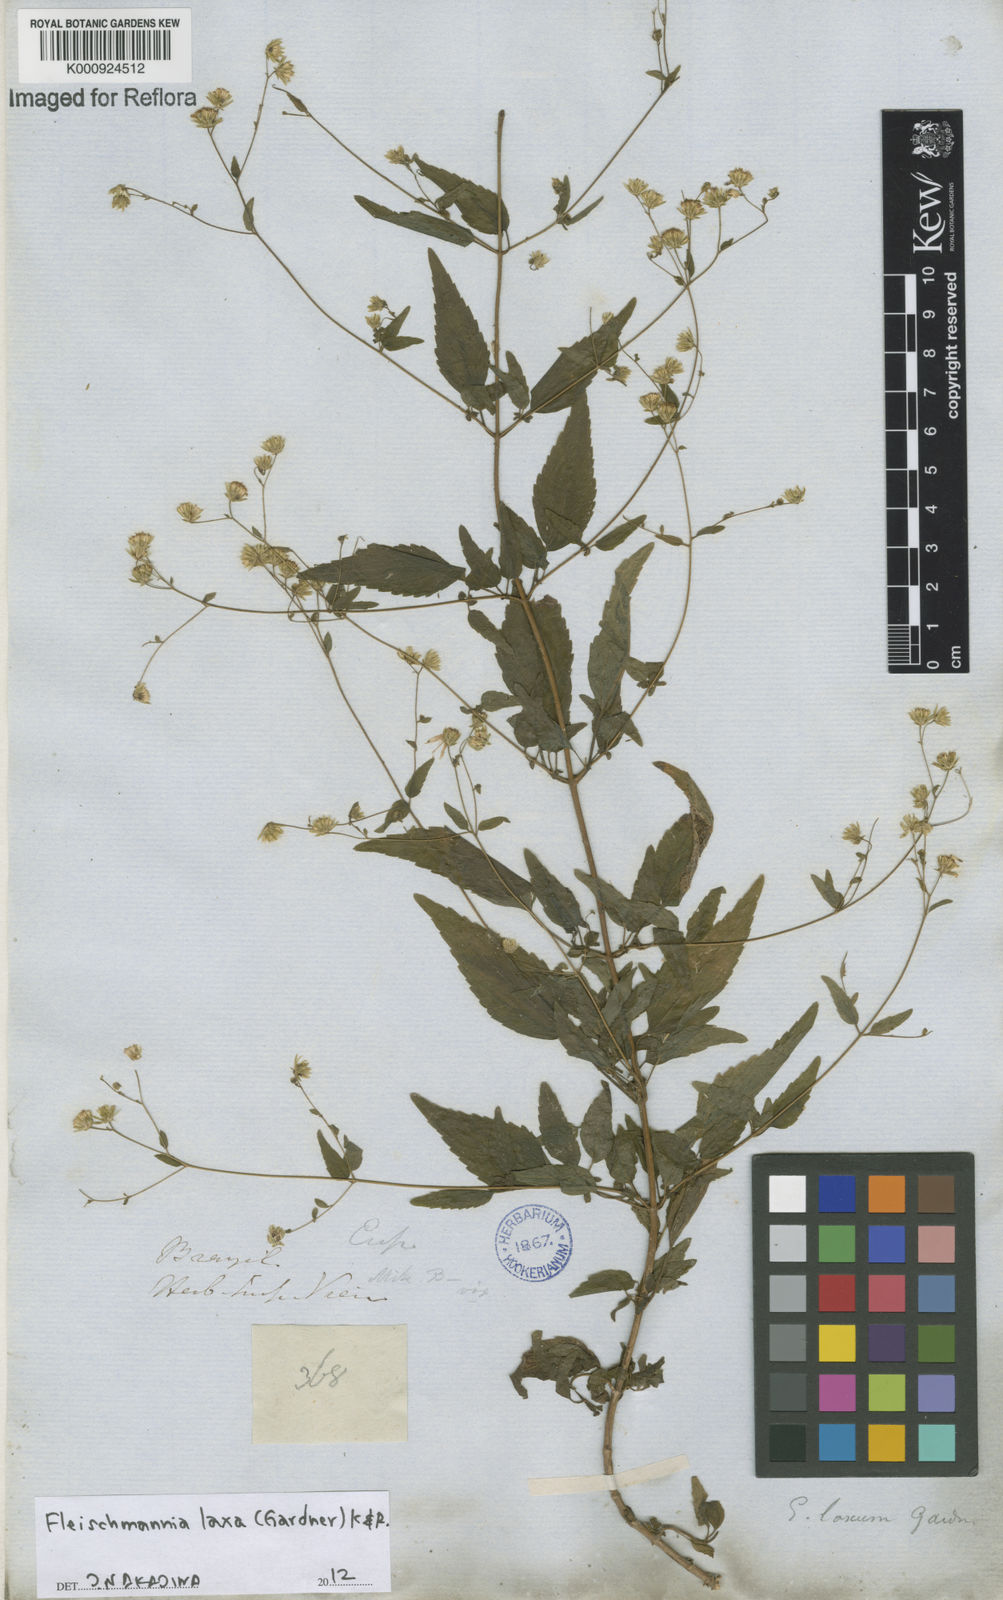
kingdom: Plantae
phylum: Tracheophyta
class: Magnoliopsida
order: Asterales
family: Asteraceae
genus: Fleischmannia
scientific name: Fleischmannia laxa
